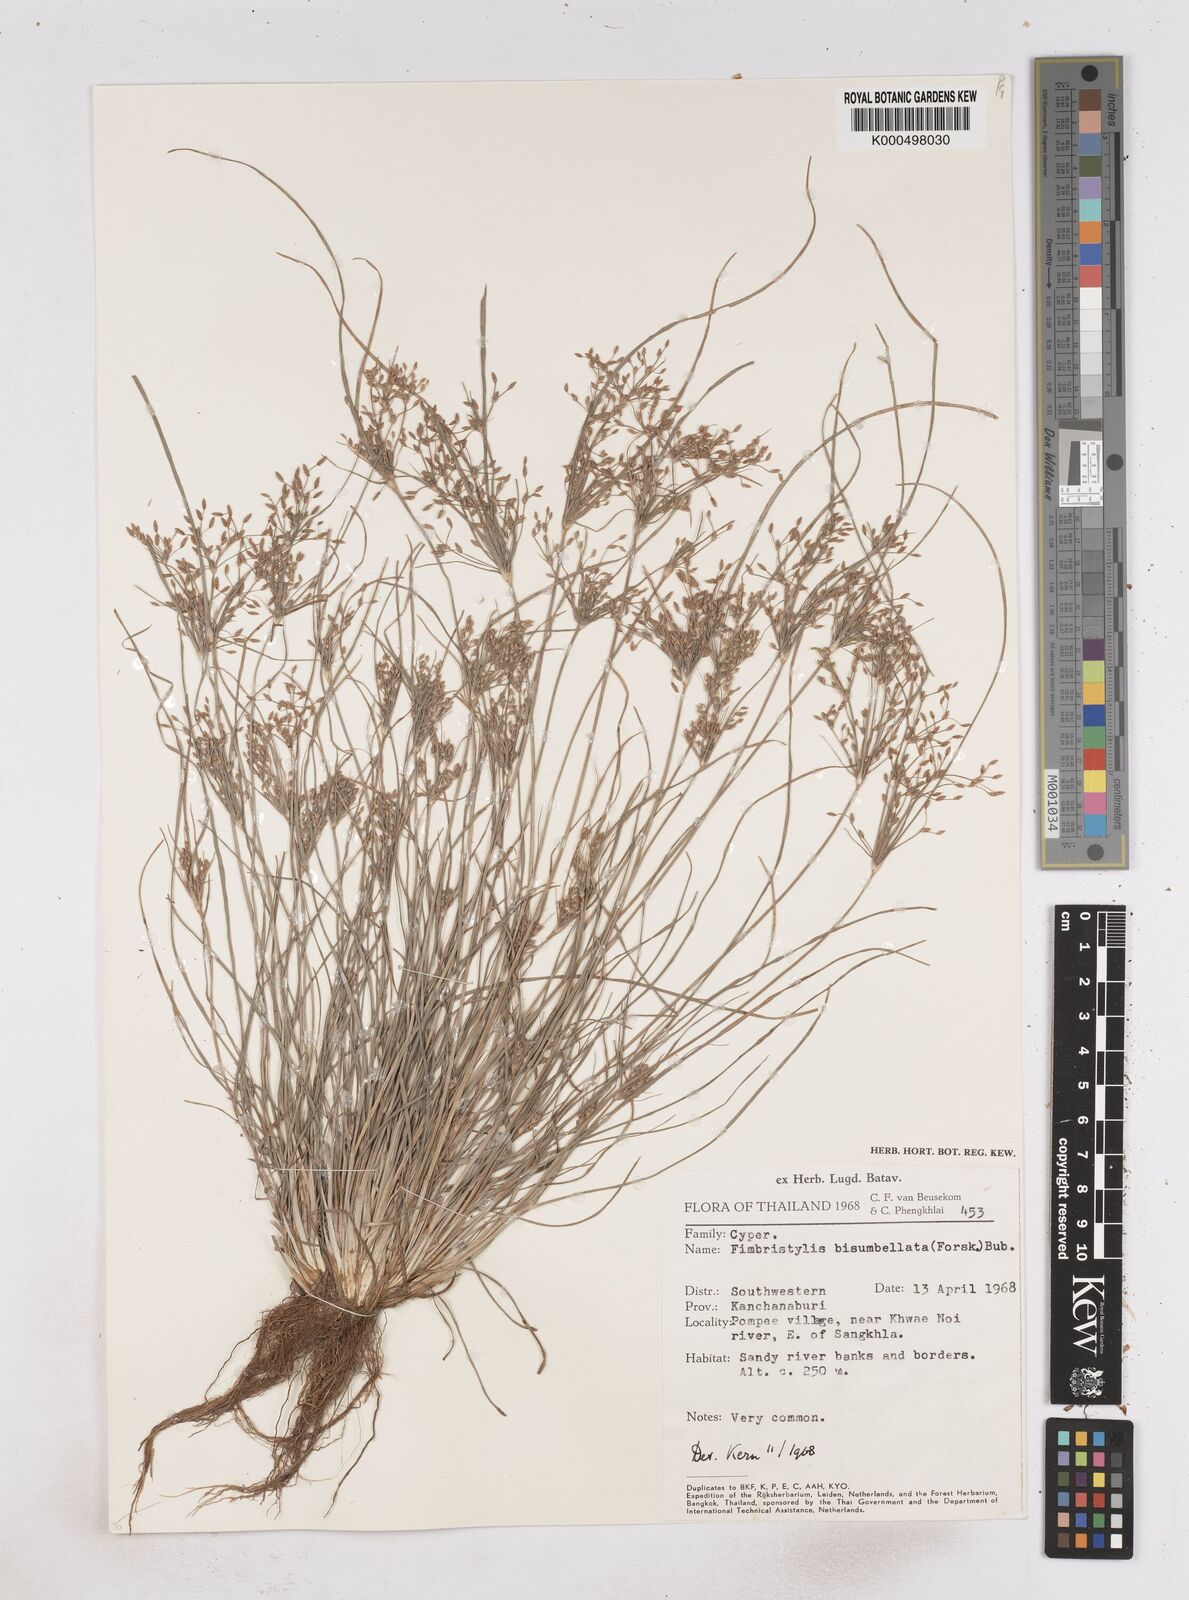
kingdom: Plantae
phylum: Tracheophyta
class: Liliopsida
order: Poales
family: Cyperaceae
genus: Fimbristylis
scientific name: Fimbristylis bisumbellata
